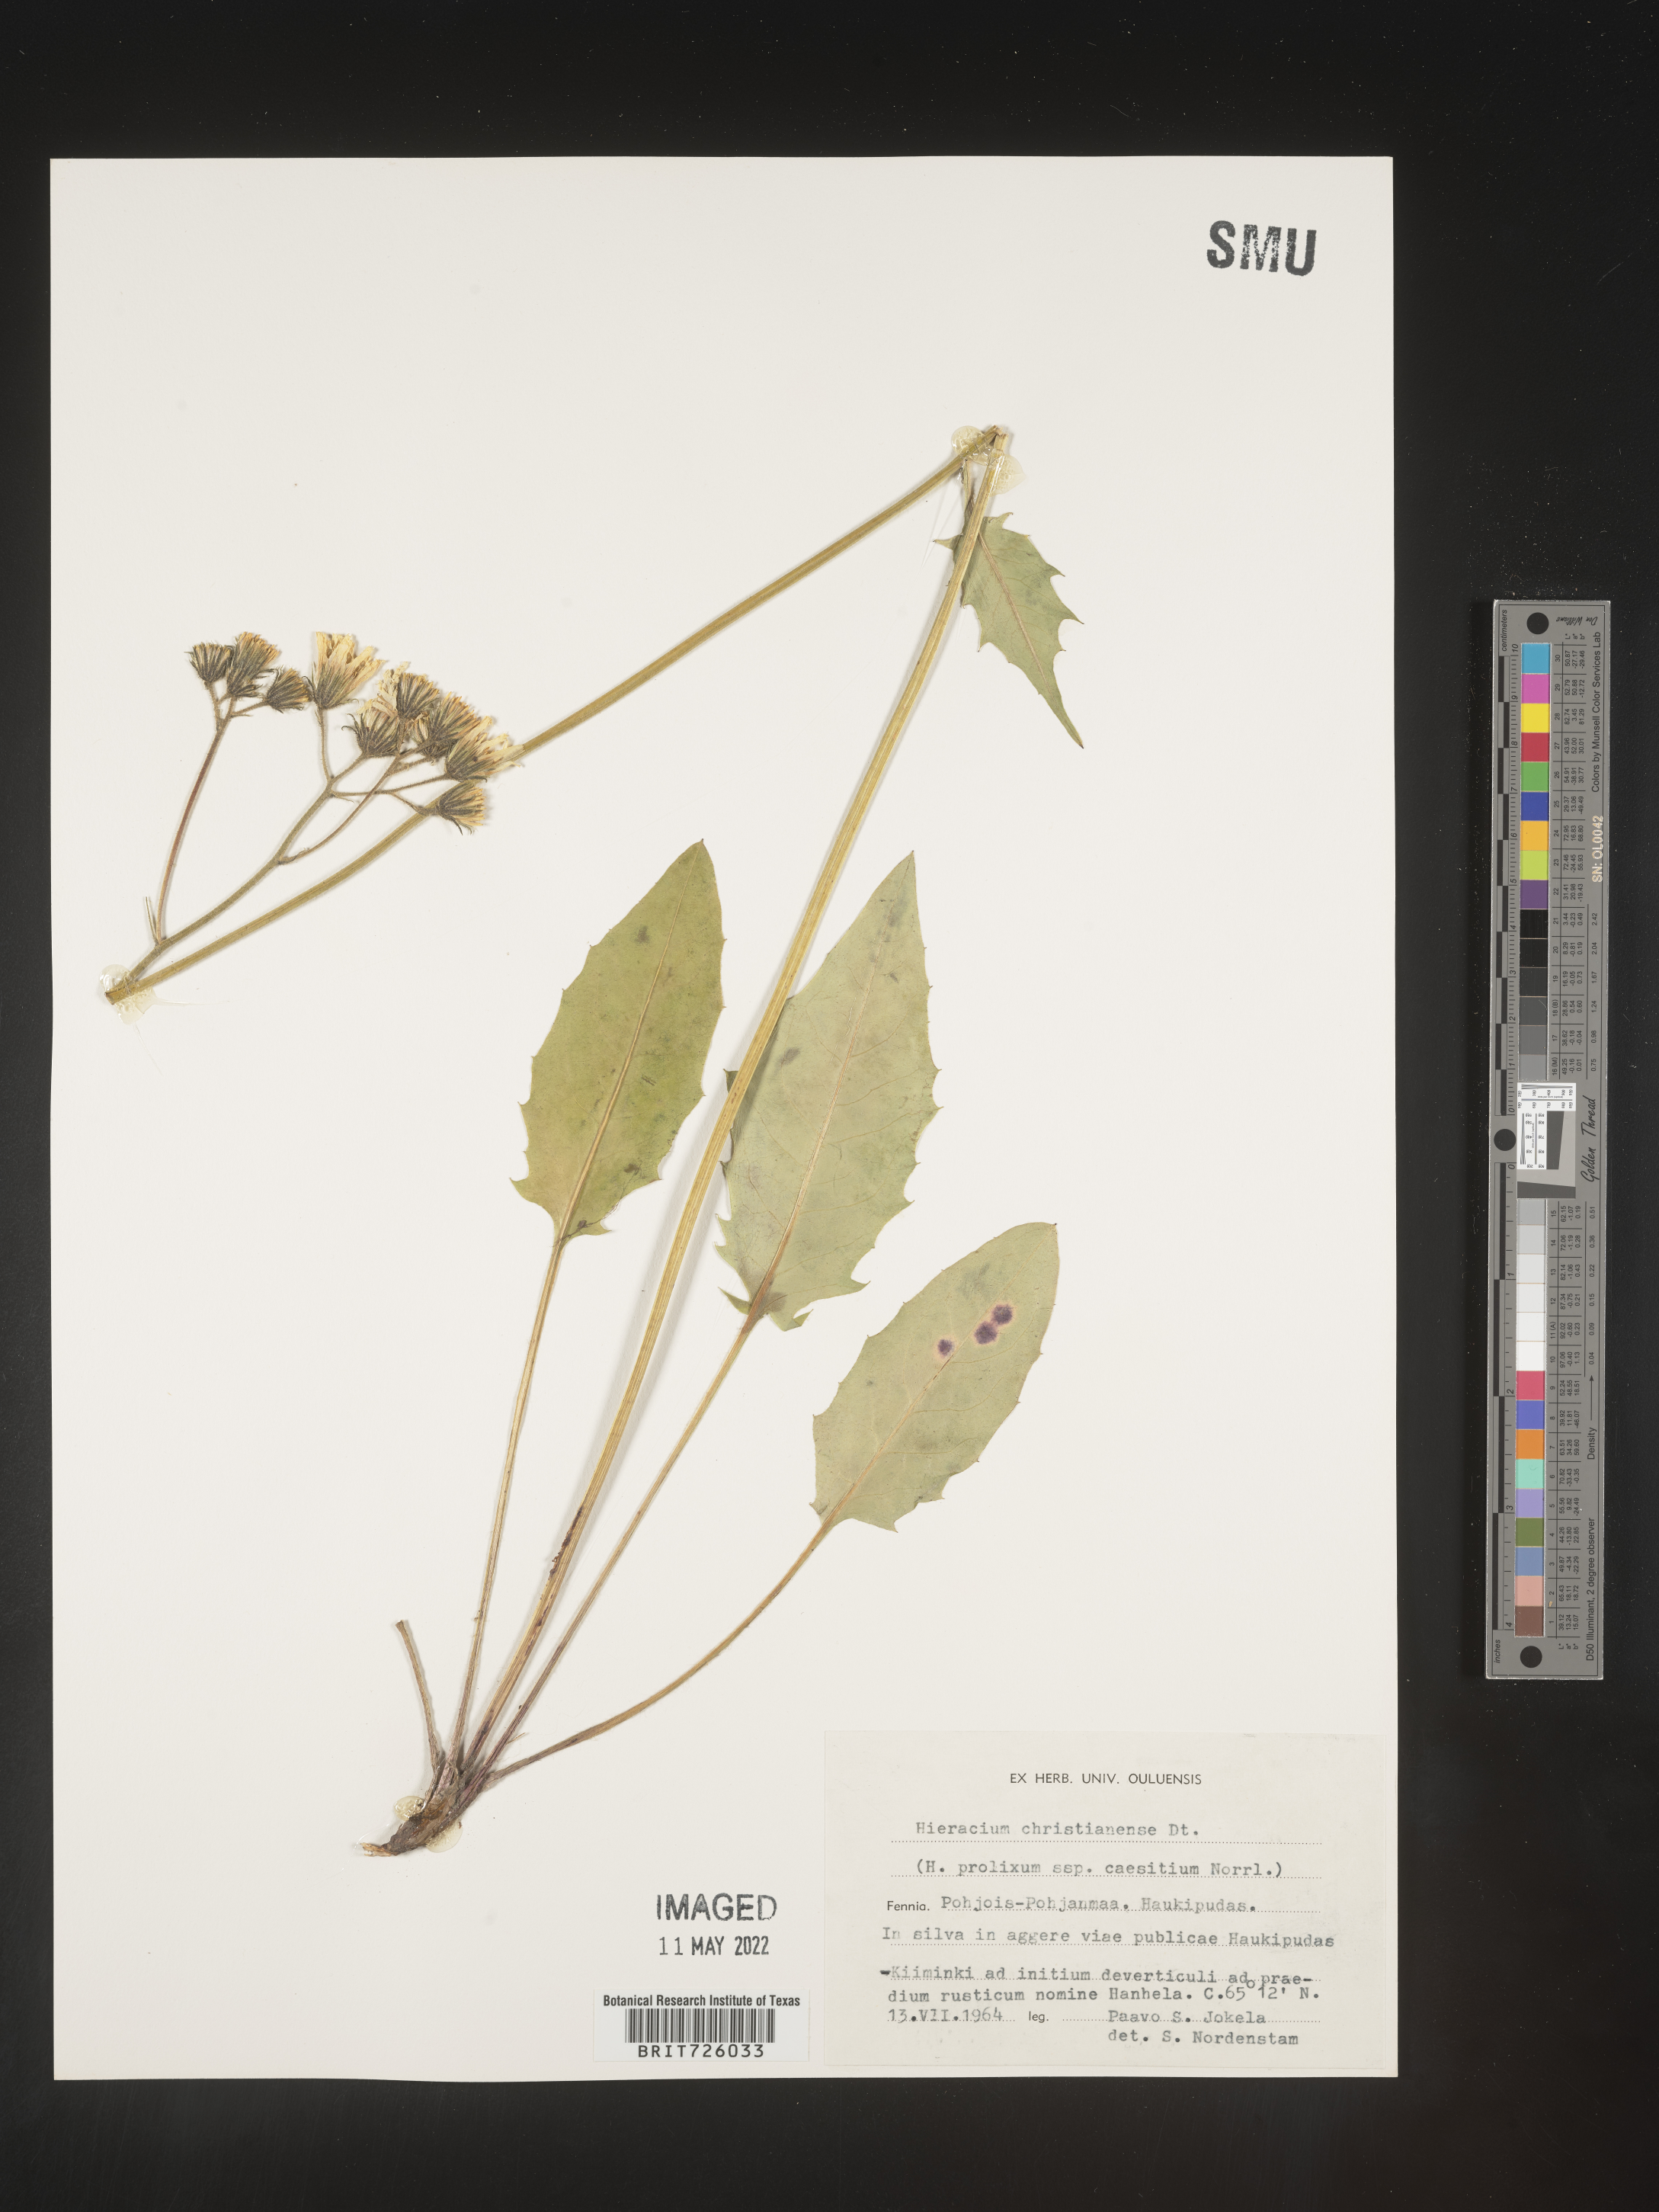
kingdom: Plantae
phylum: Tracheophyta
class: Magnoliopsida
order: Asterales
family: Asteraceae
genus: Hieracium
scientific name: Hieracium
